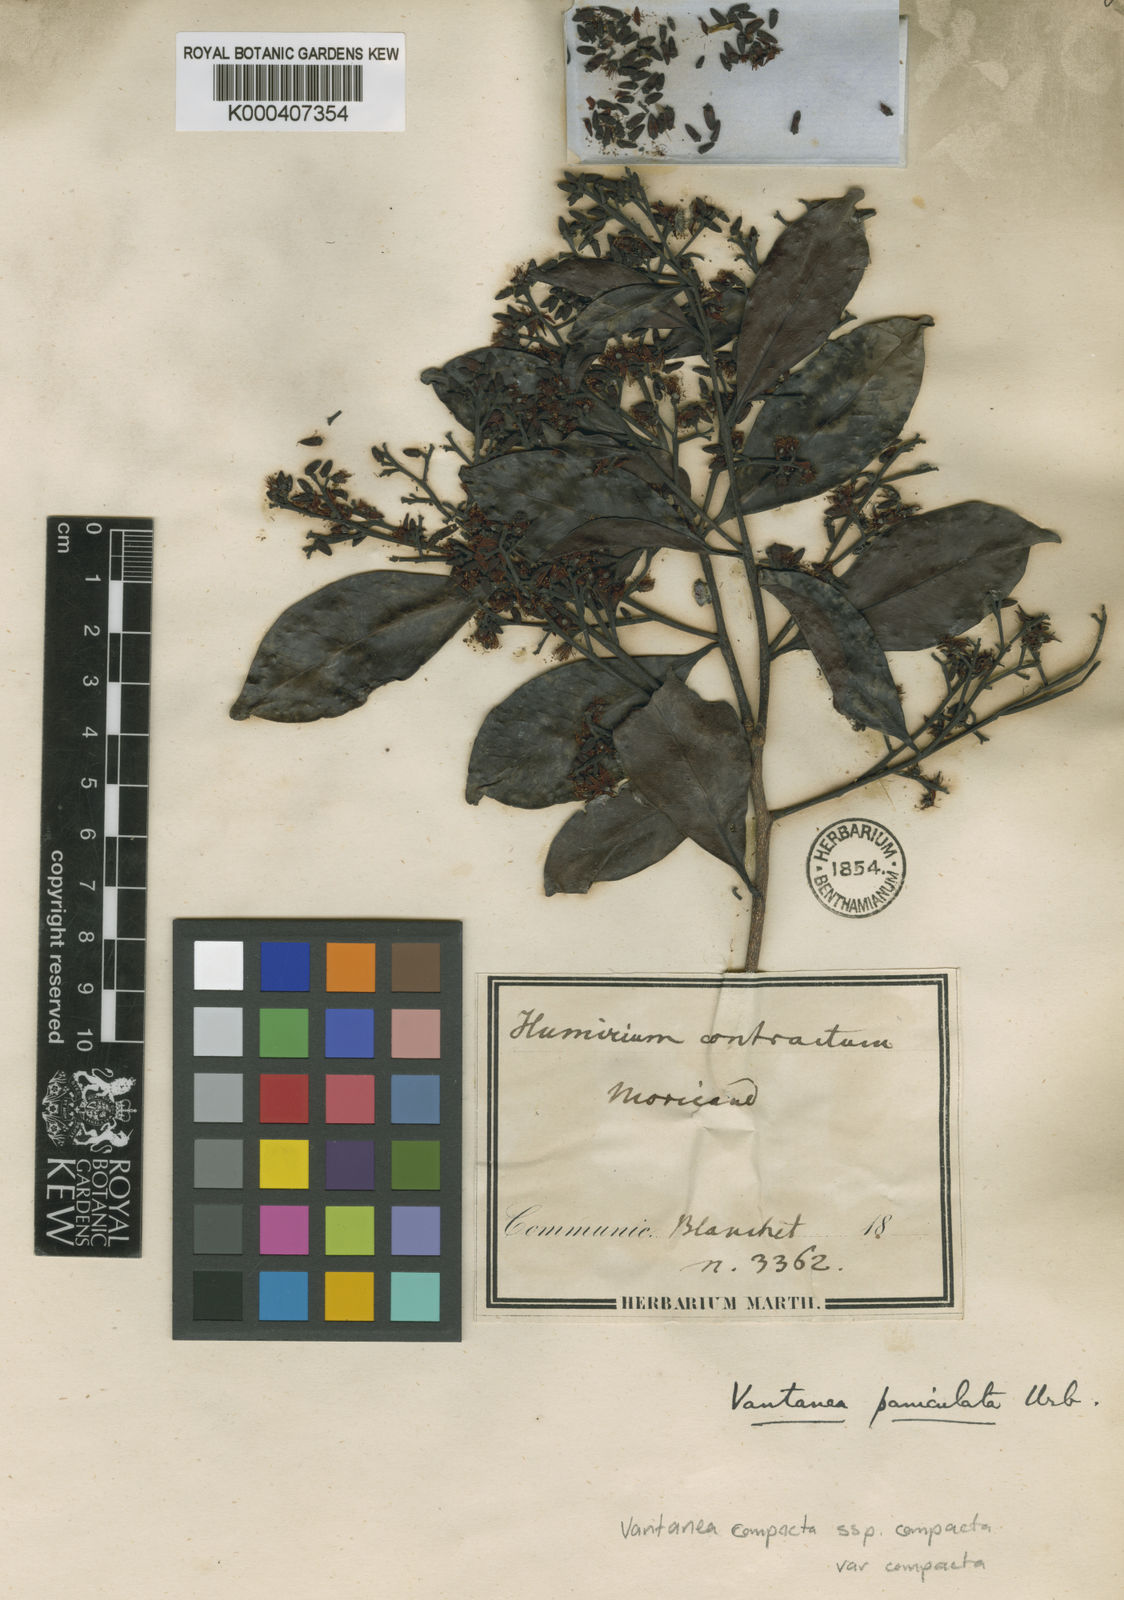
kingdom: Plantae
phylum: Tracheophyta
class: Magnoliopsida
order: Malpighiales
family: Humiriaceae
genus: Vantanea
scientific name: Vantanea compacta
